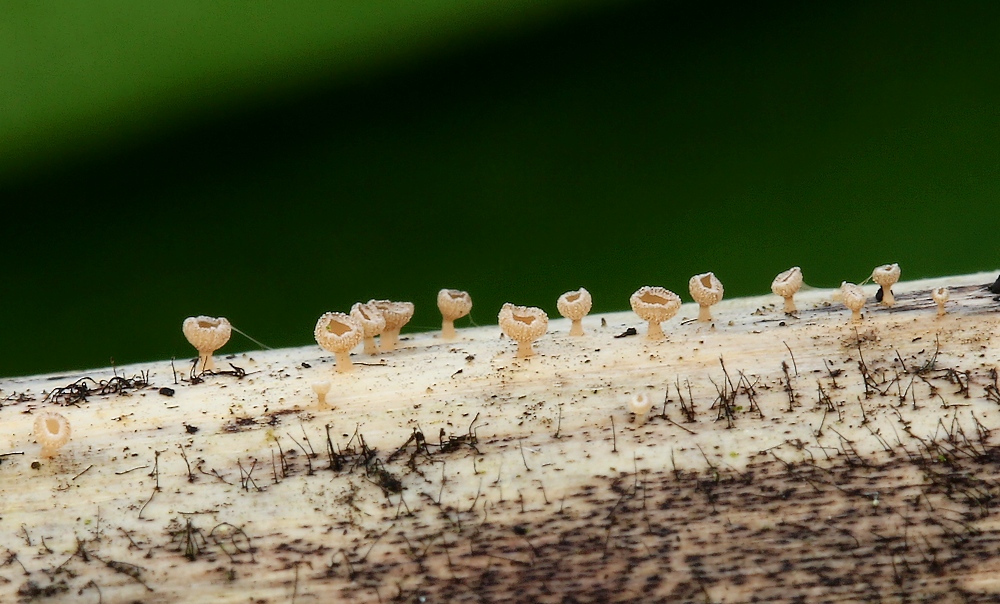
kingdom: Fungi
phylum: Ascomycota
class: Leotiomycetes
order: Helotiales
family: Helotiaceae
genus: Cyathicula
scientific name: Cyathicula cyathoidea
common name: pokal-stilkskive
